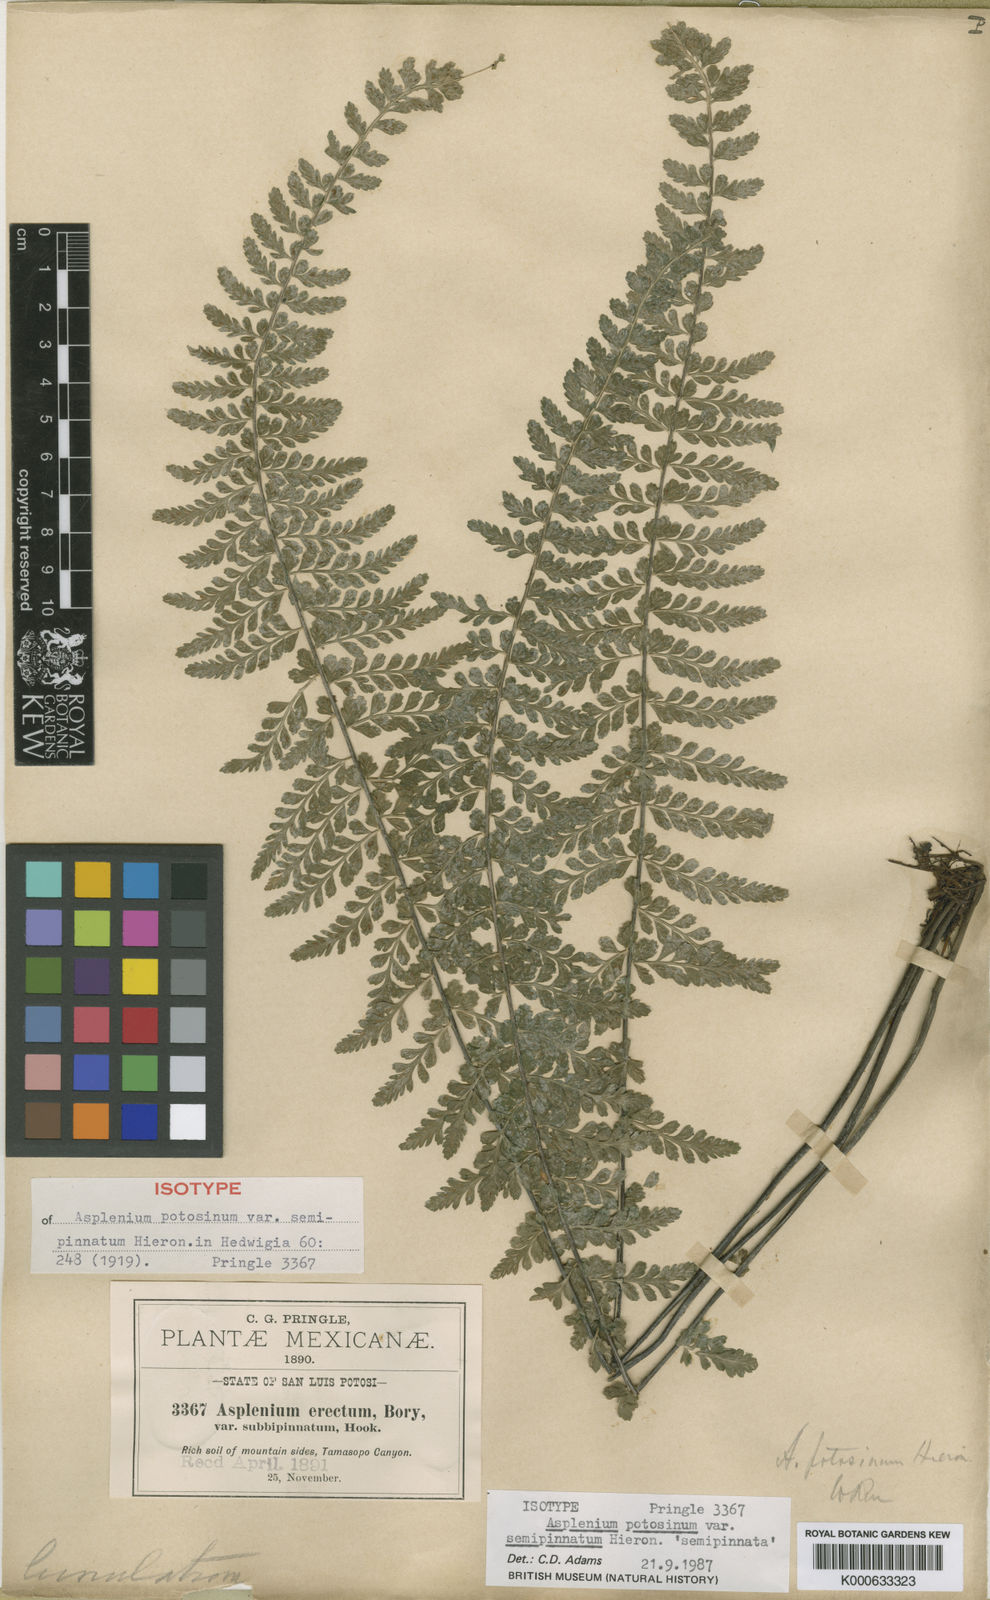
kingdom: Plantae
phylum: Tracheophyta
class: Polypodiopsida
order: Polypodiales
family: Aspleniaceae
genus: Asplenium
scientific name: Asplenium semipinnatum
